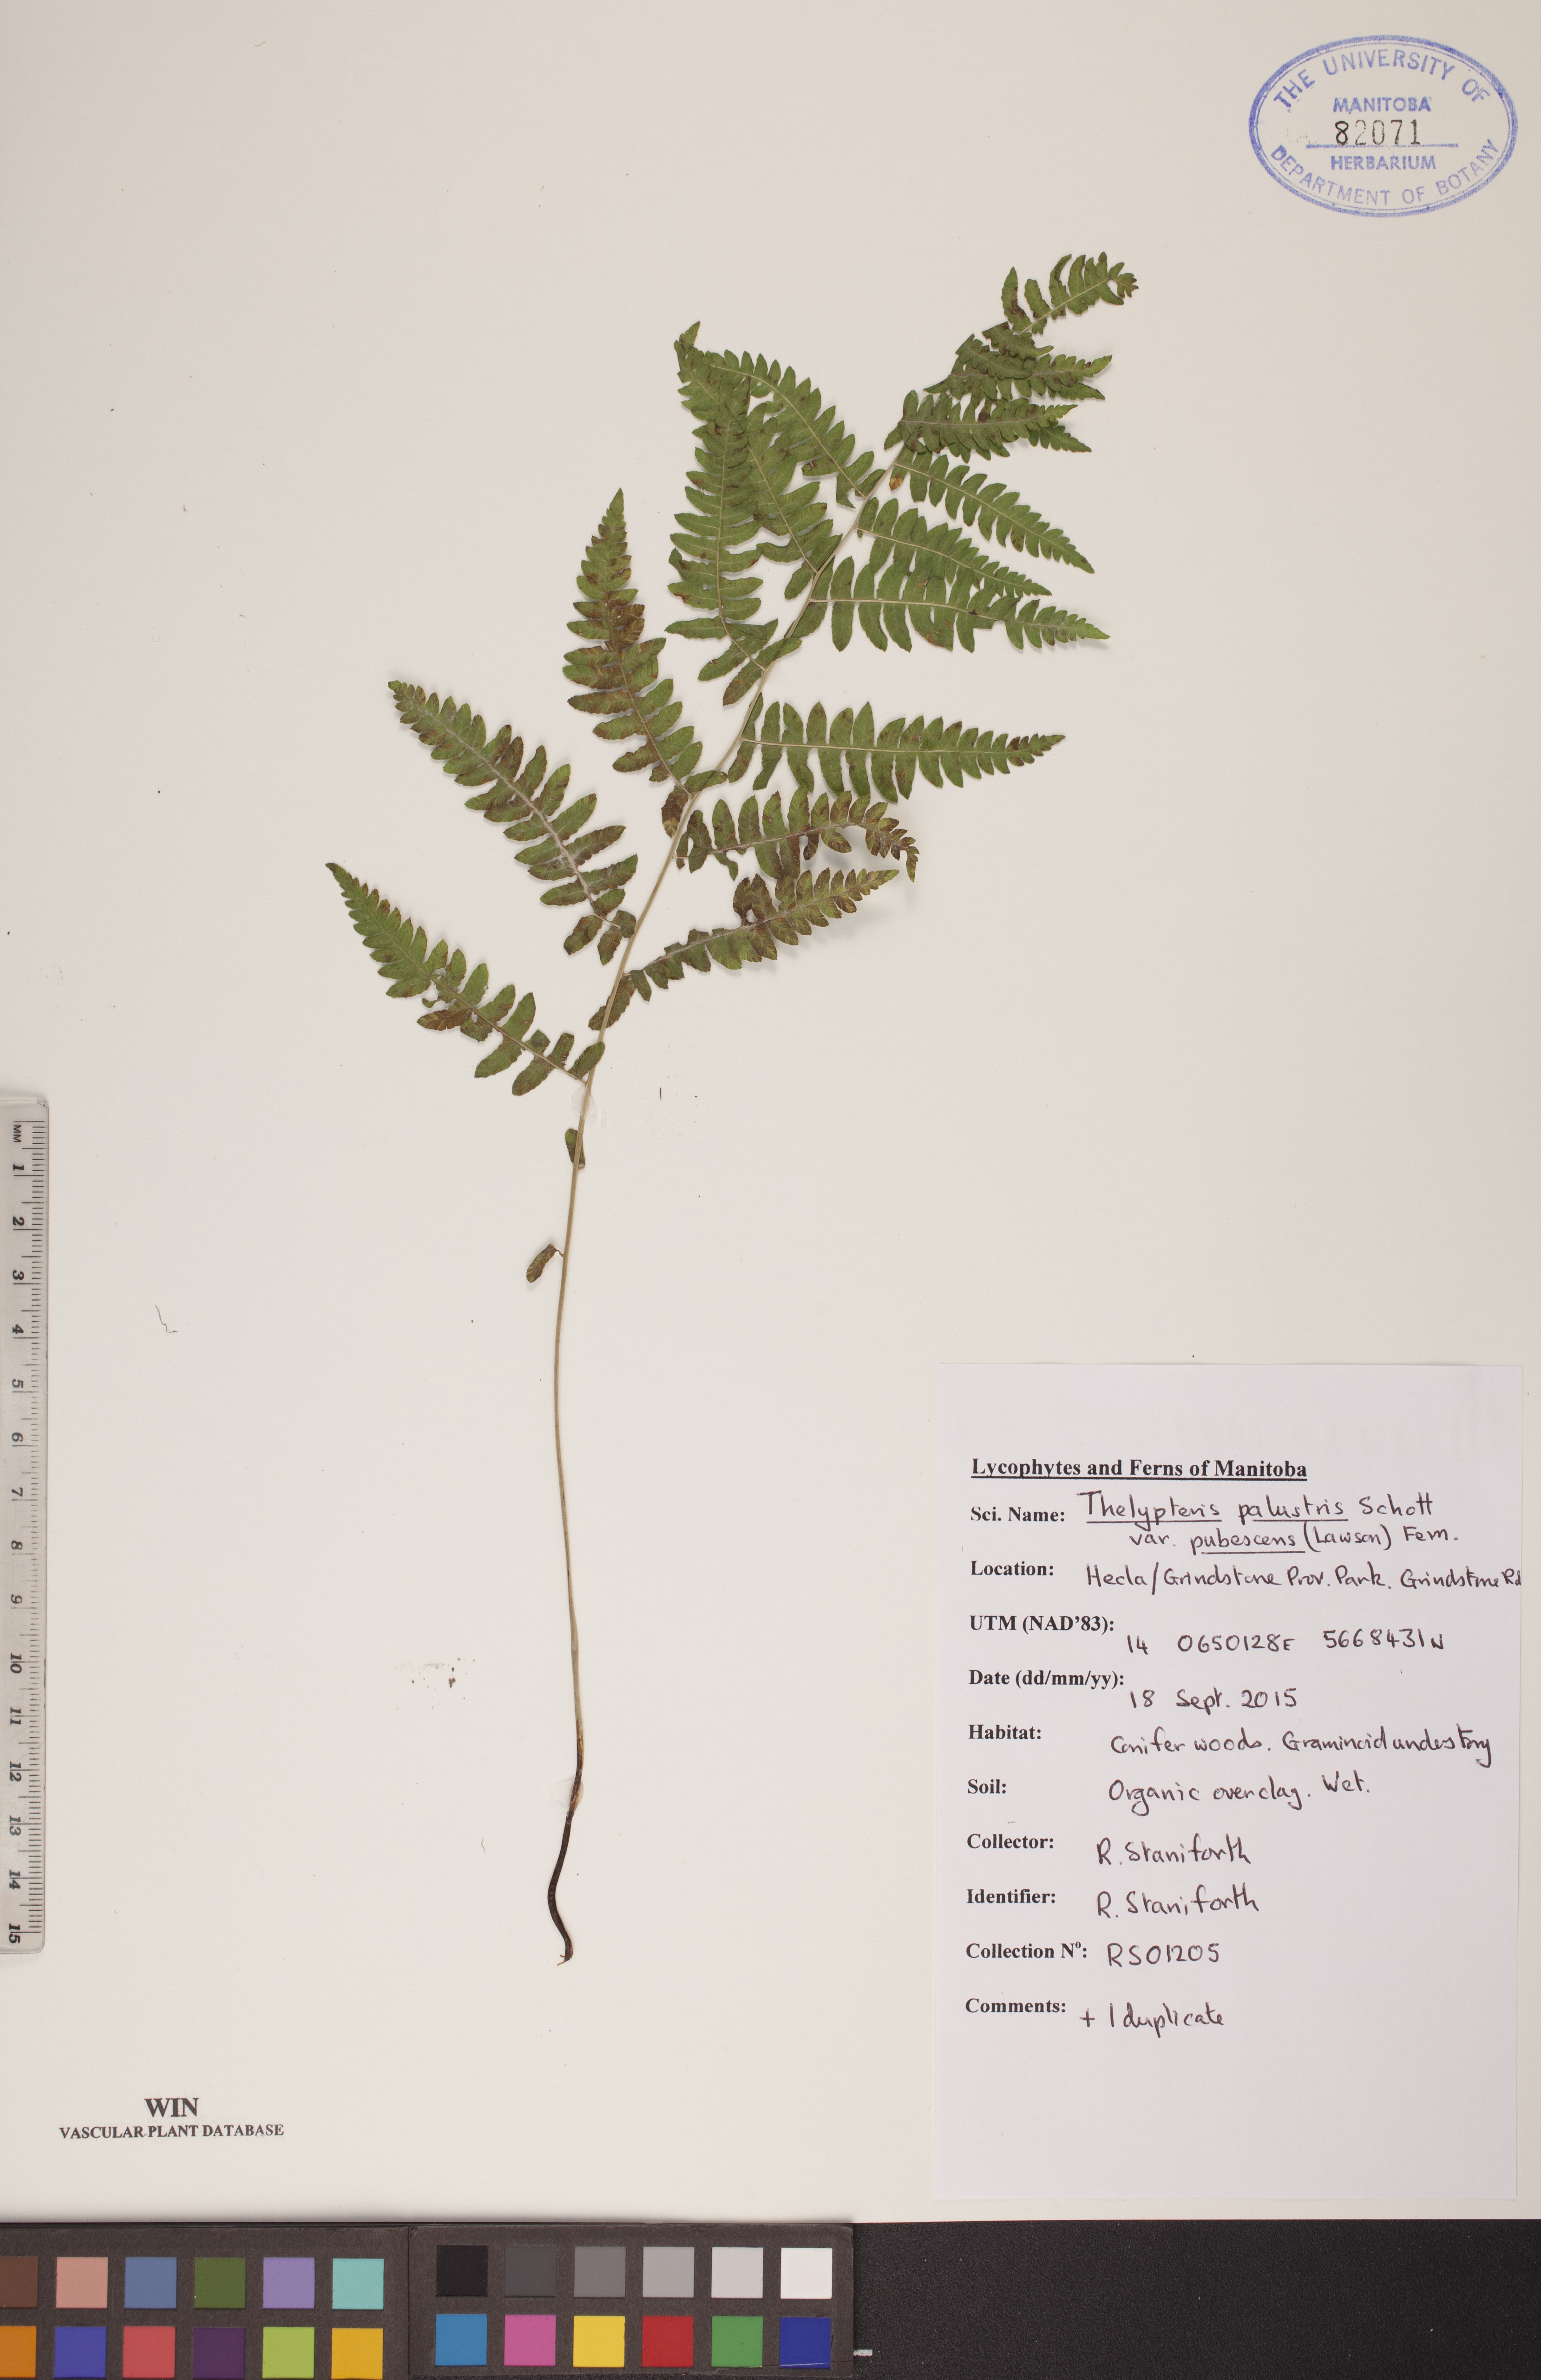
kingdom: Plantae
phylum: Tracheophyta
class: Polypodiopsida
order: Polypodiales
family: Thelypteridaceae
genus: Thelypteris
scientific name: Thelypteris palustris
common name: Marsh fern
